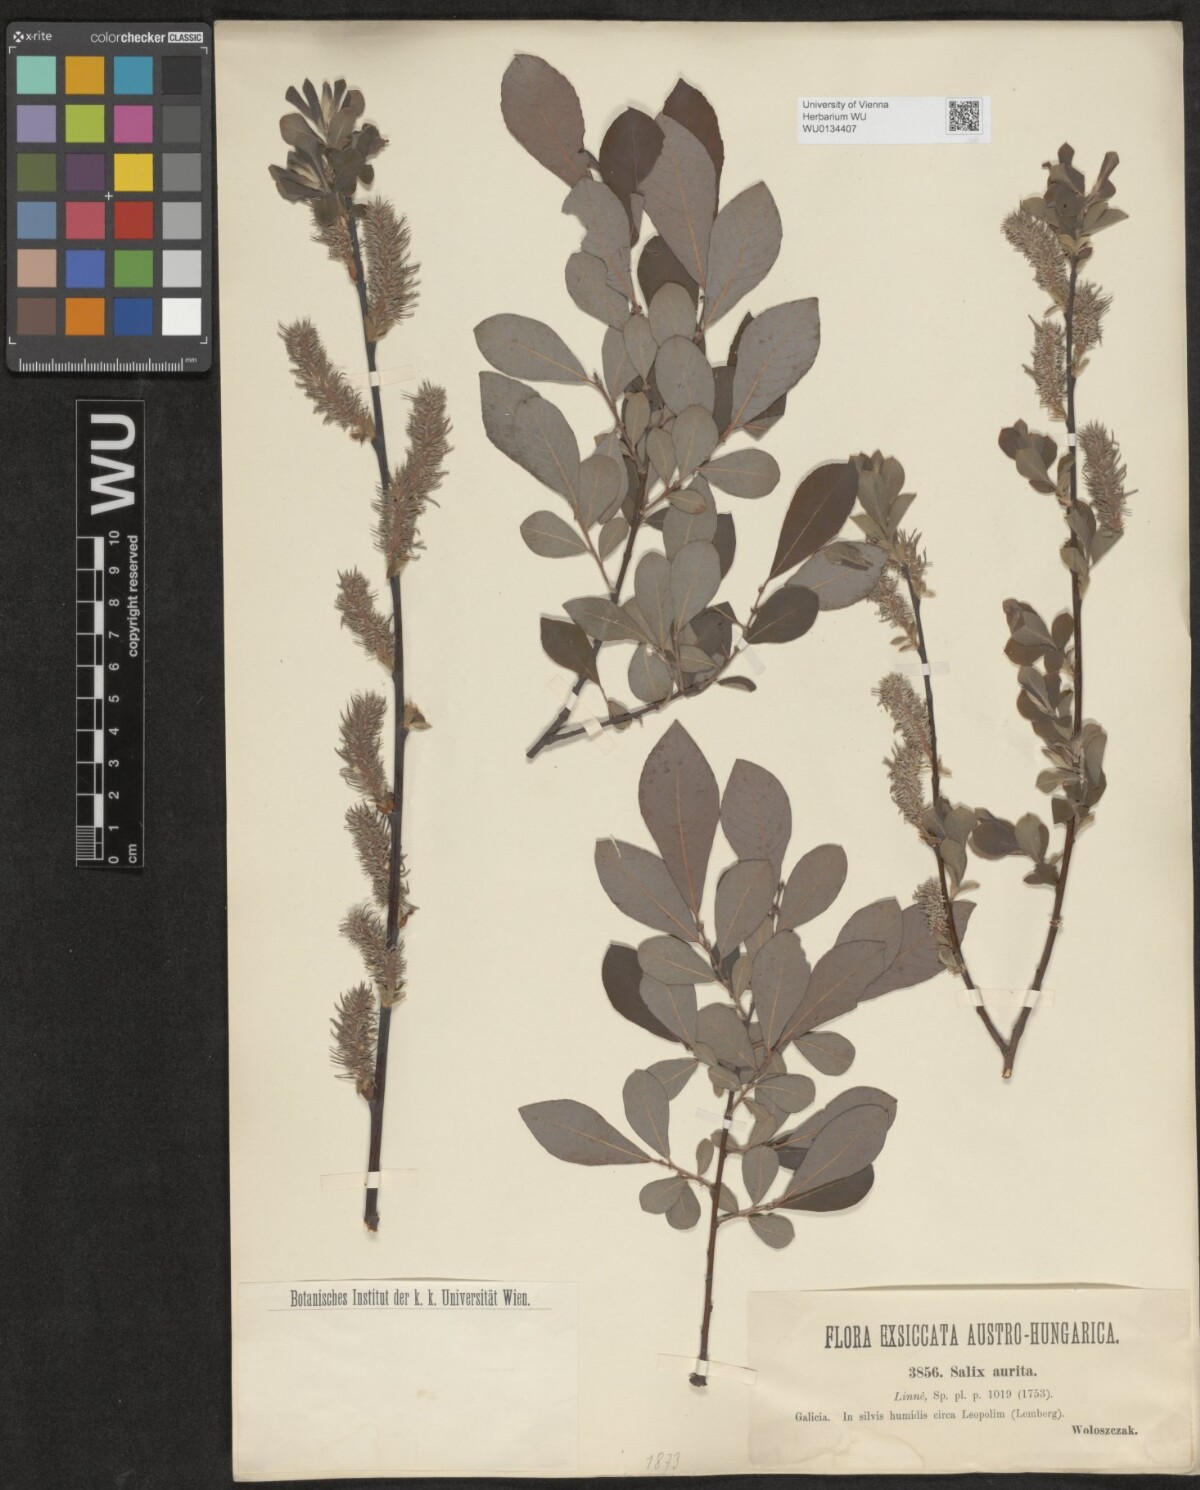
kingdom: Plantae
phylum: Tracheophyta
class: Magnoliopsida
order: Malpighiales
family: Salicaceae
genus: Salix
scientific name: Salix aurita
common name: Eared willow
